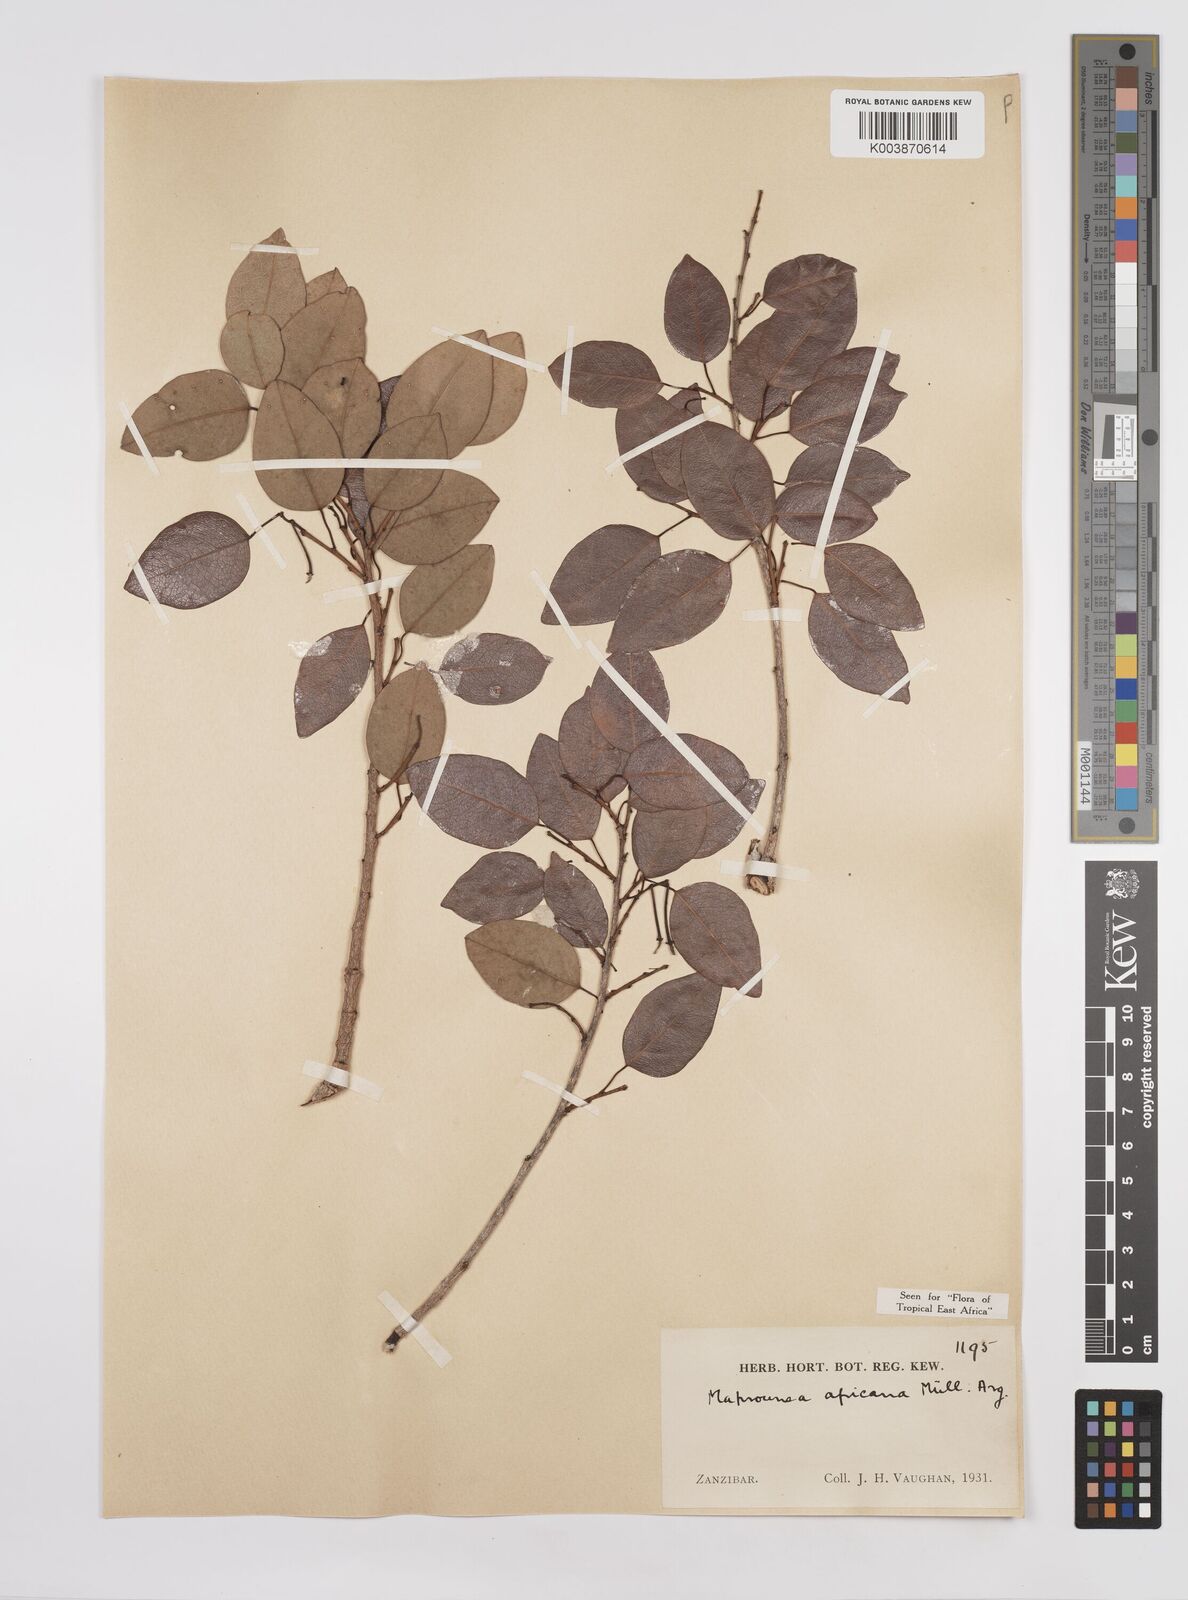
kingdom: Plantae
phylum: Tracheophyta
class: Magnoliopsida
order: Malpighiales
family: Euphorbiaceae
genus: Maprounea
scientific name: Maprounea africana
